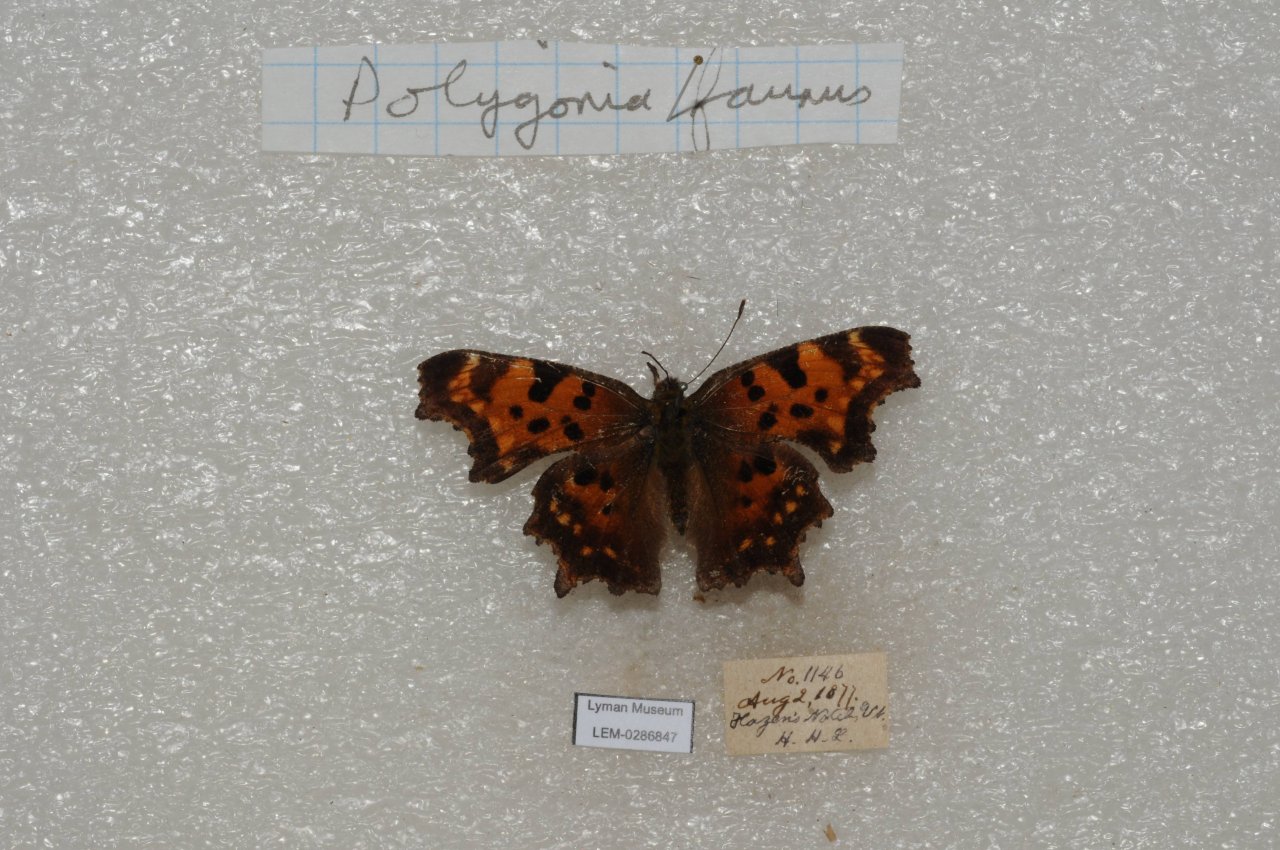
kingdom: Animalia
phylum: Arthropoda
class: Insecta
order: Lepidoptera
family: Nymphalidae
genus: Polygonia
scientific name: Polygonia faunus
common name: Green Comma
